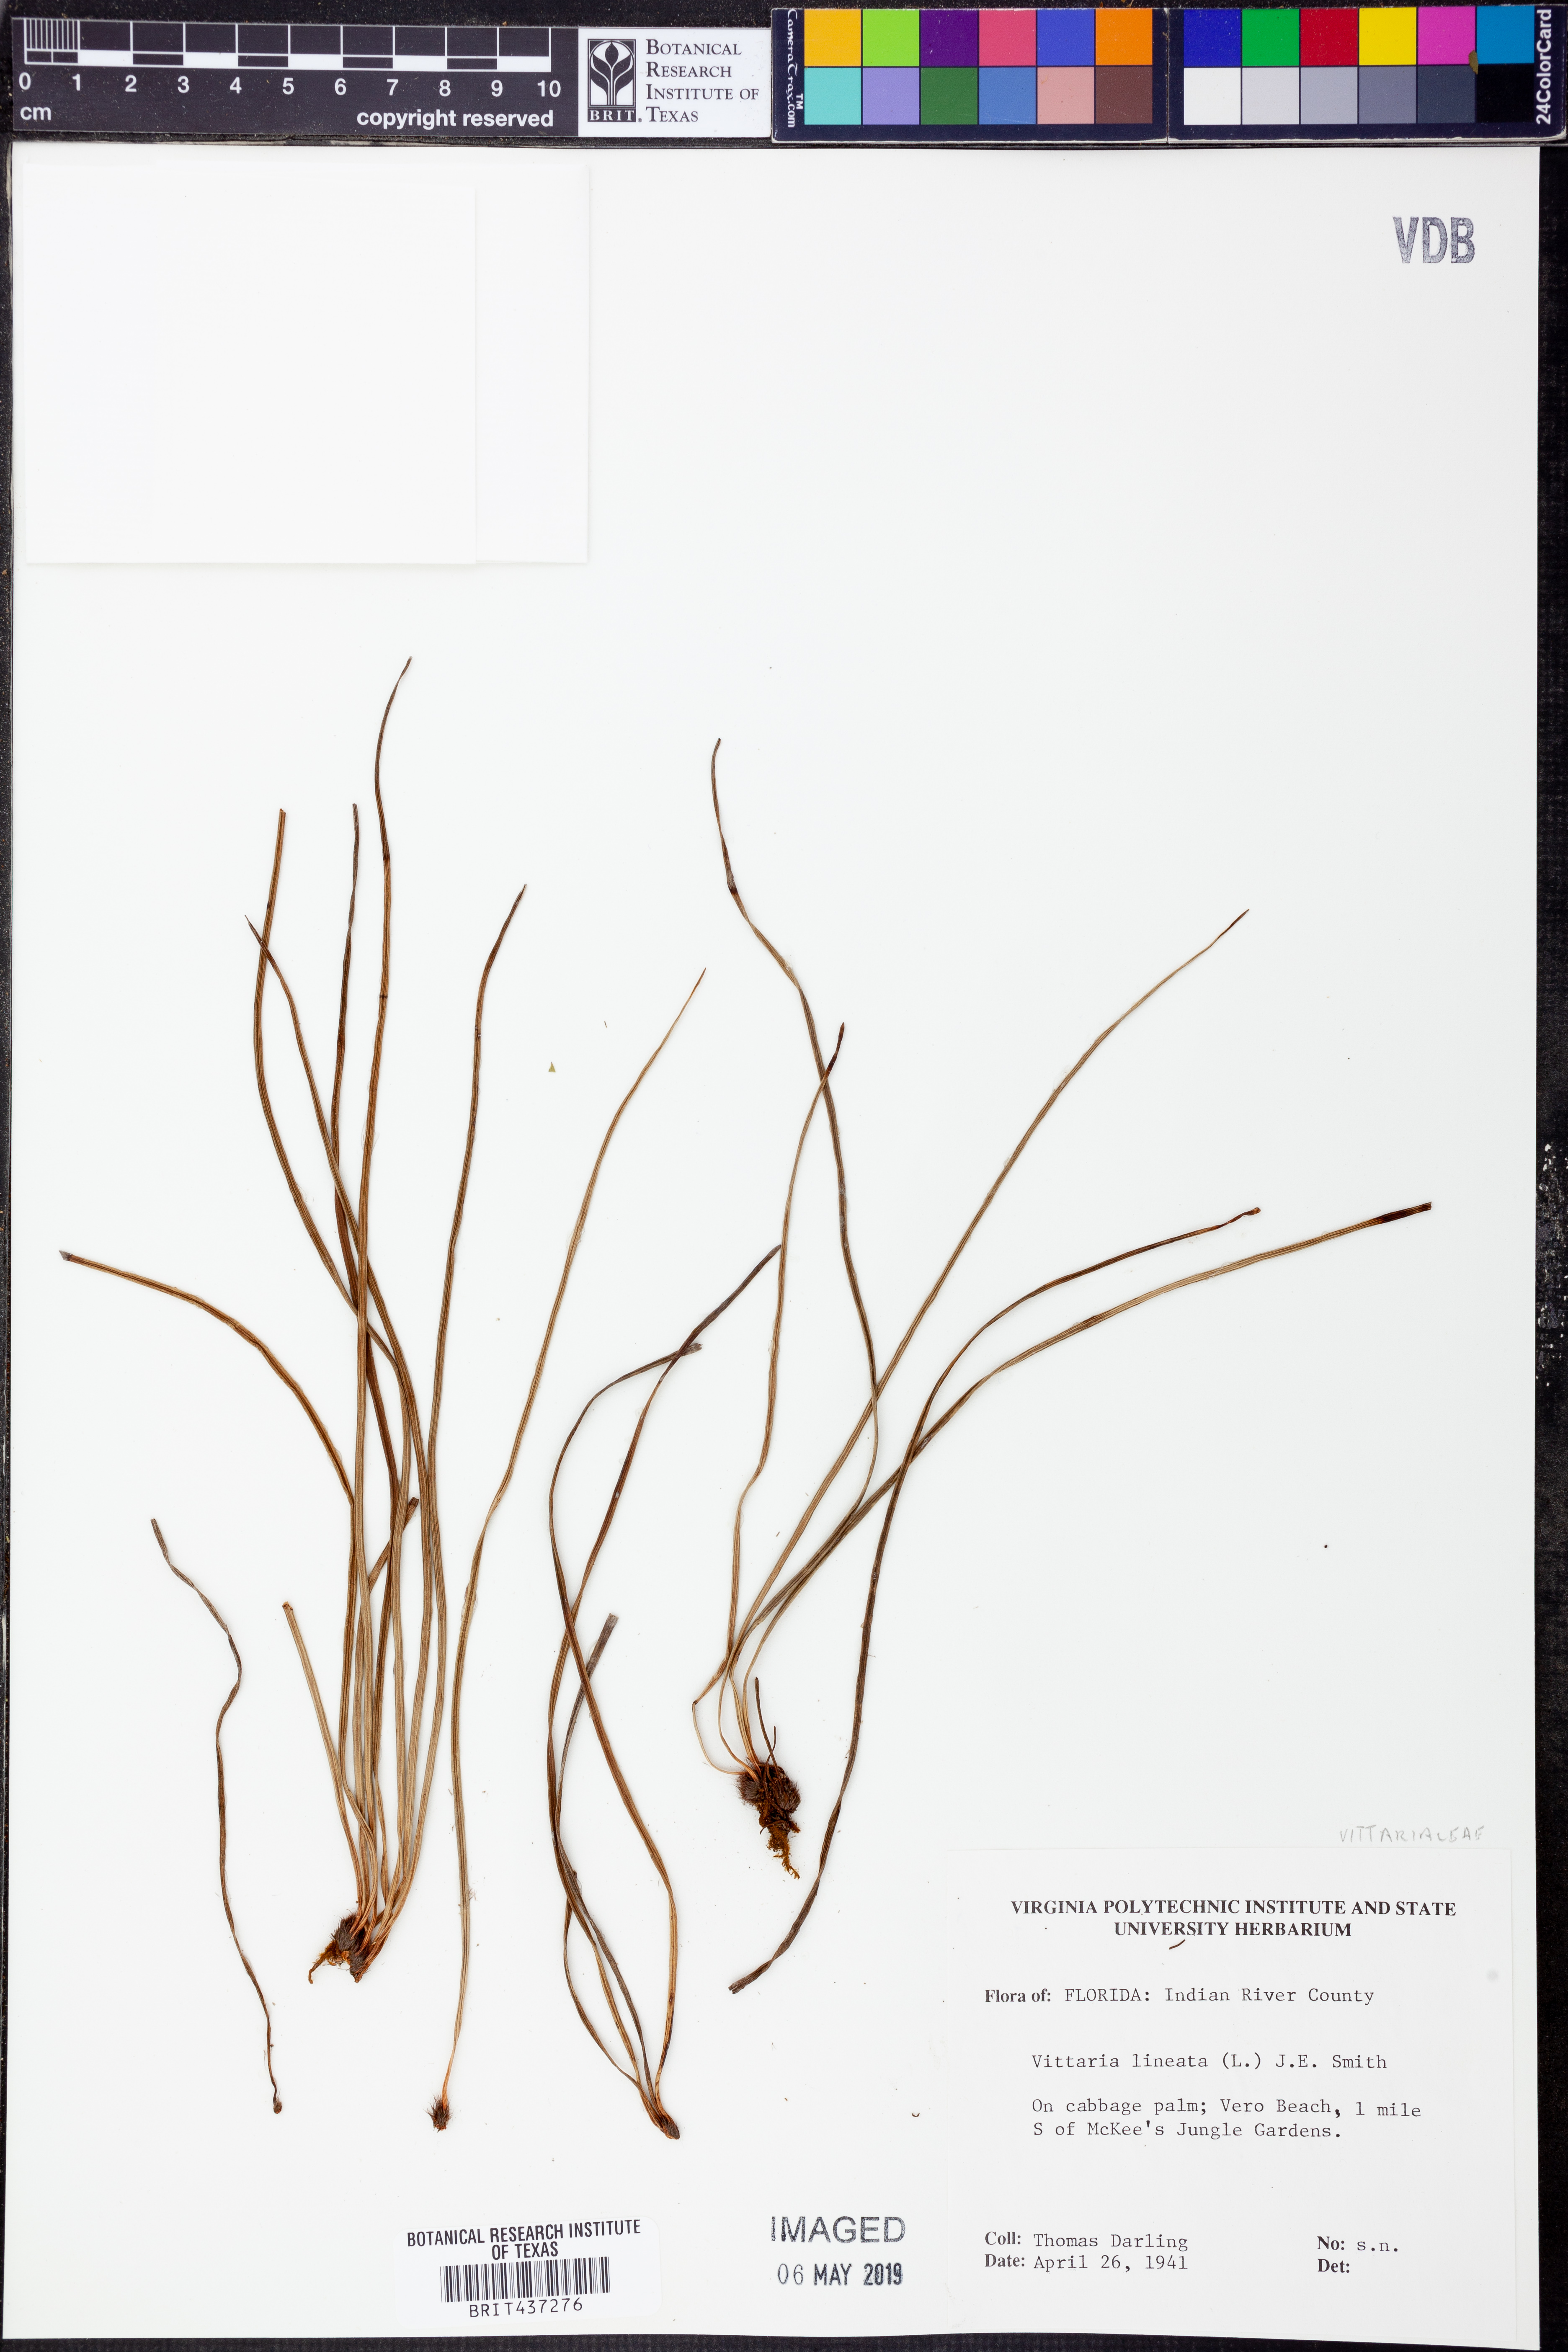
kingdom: Plantae
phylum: Tracheophyta
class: Polypodiopsida
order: Polypodiales
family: Pteridaceae
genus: Vittaria
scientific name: Vittaria lineata
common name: Shoestring fern
